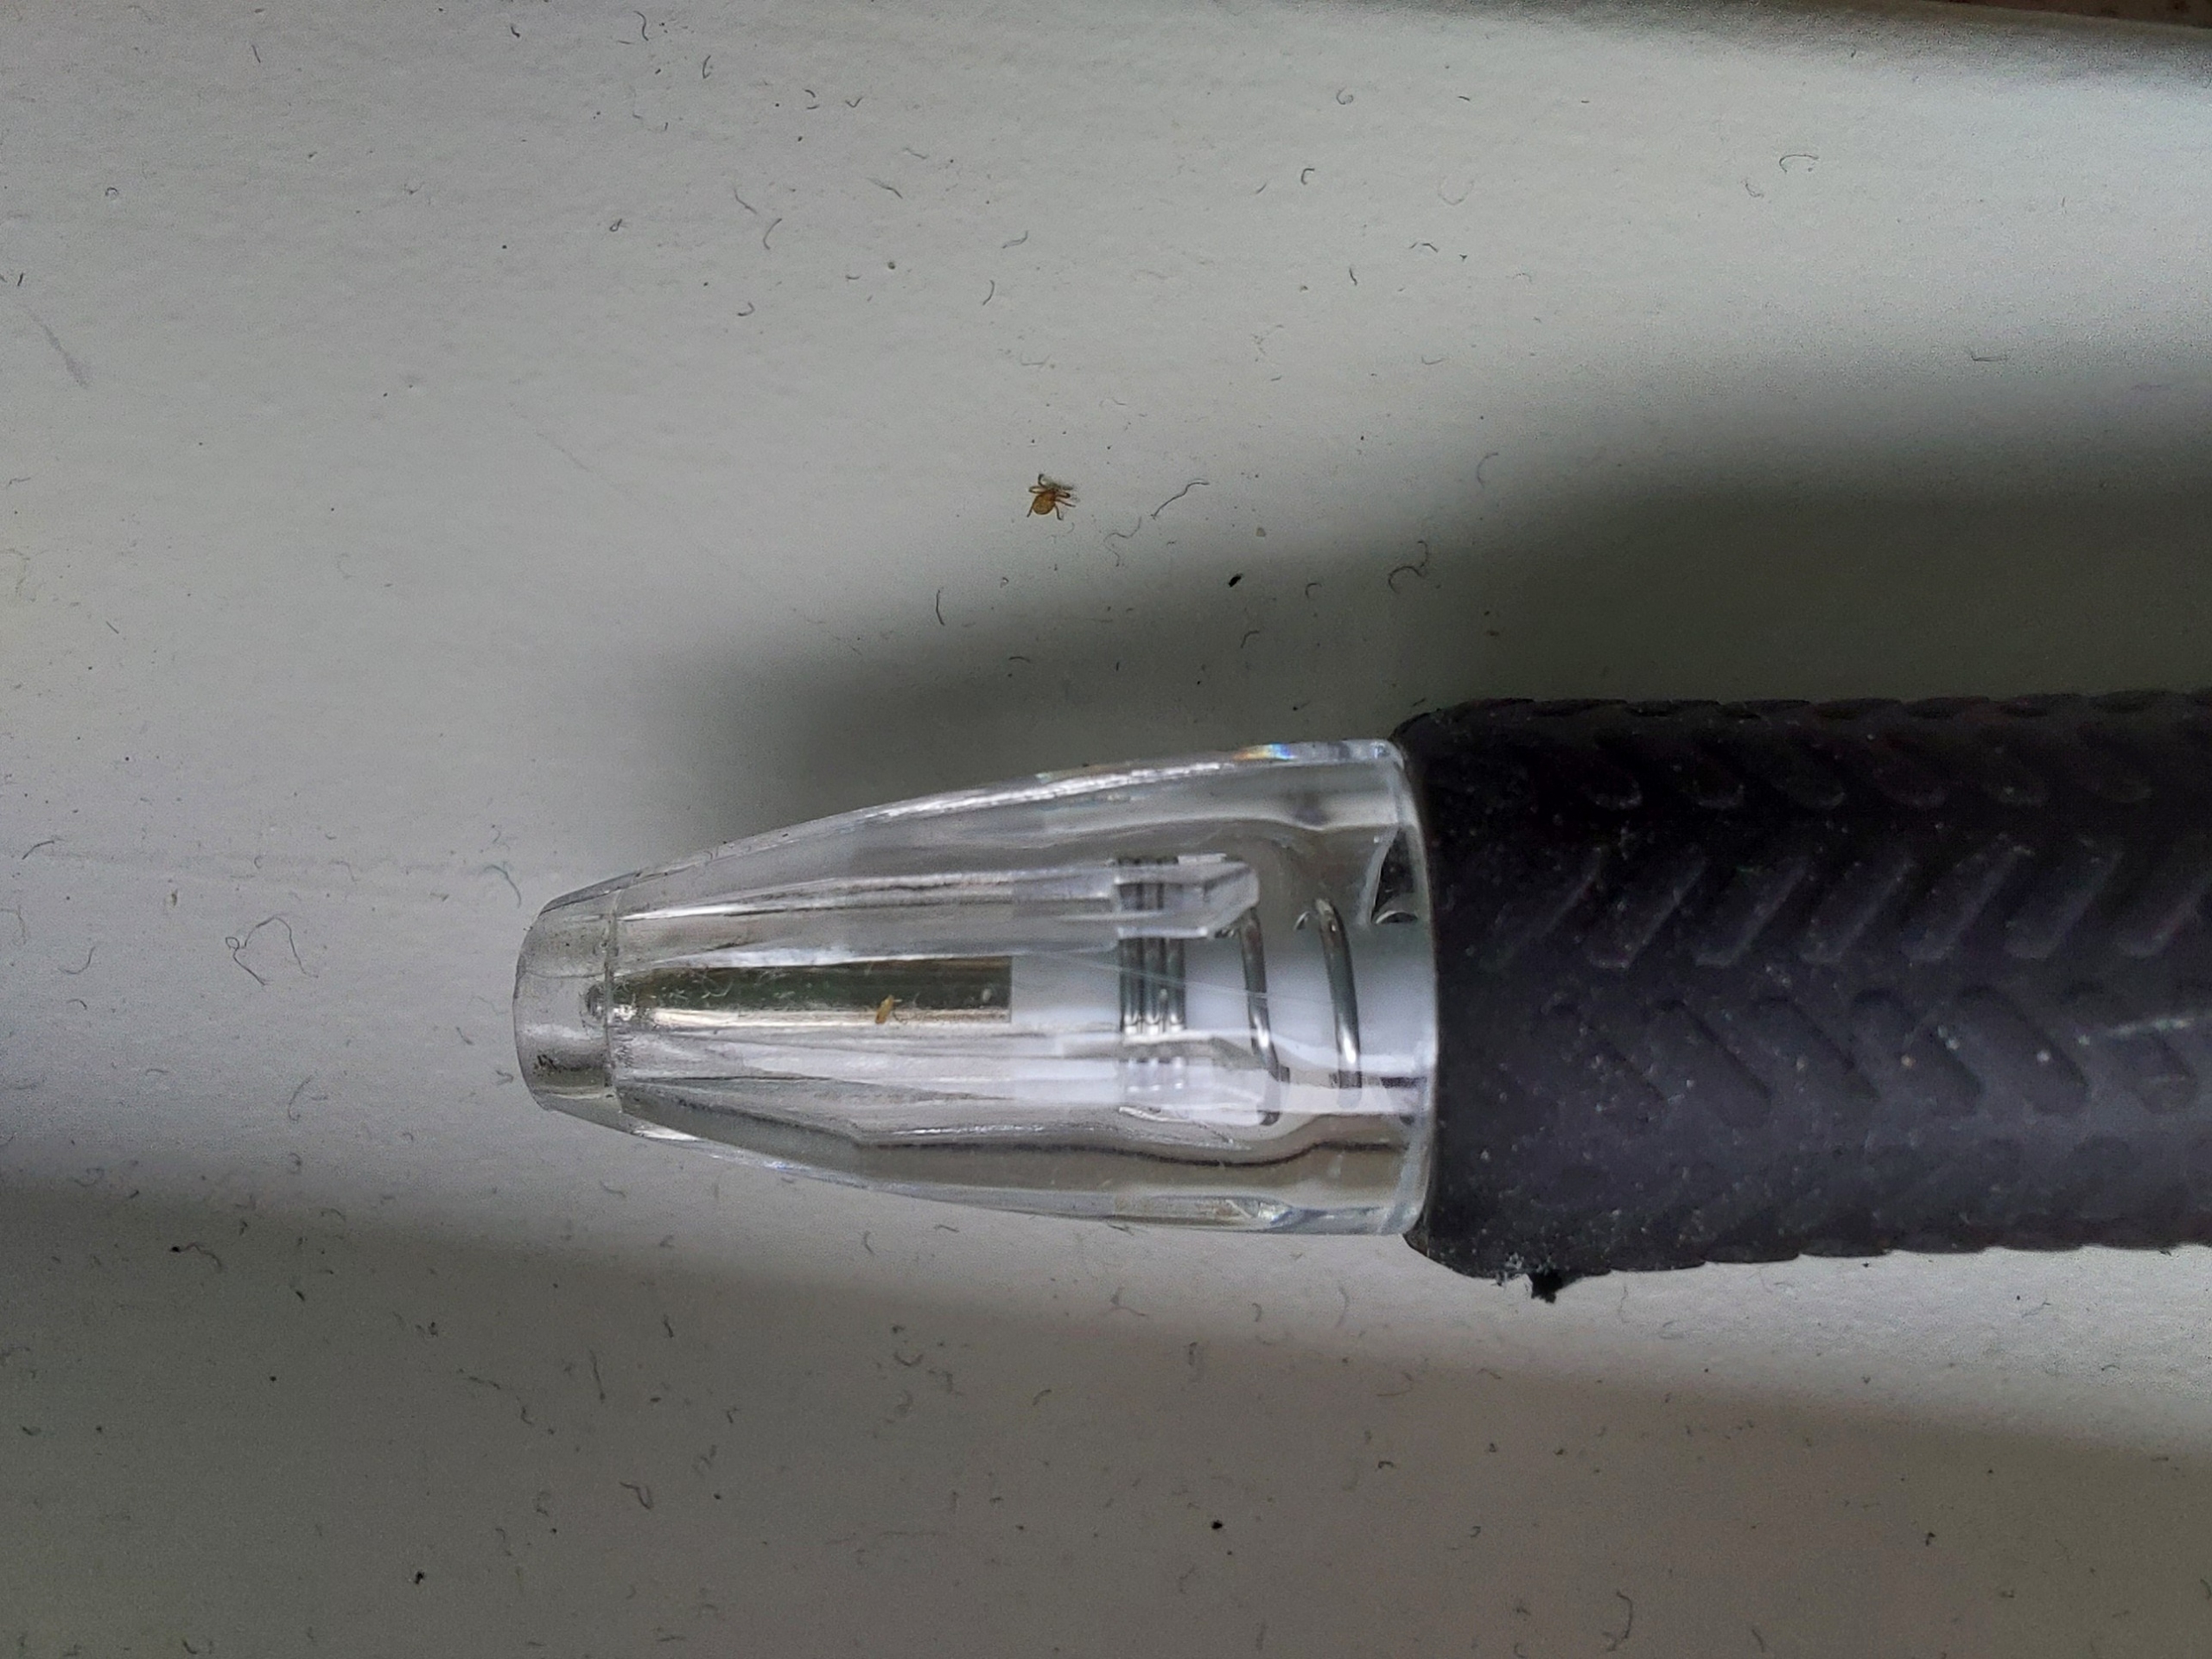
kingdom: Animalia
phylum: Arthropoda
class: Arachnida
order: Ixodida
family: Ixodidae
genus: Ixodes
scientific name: Ixodes ricinus
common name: Skovflåt
